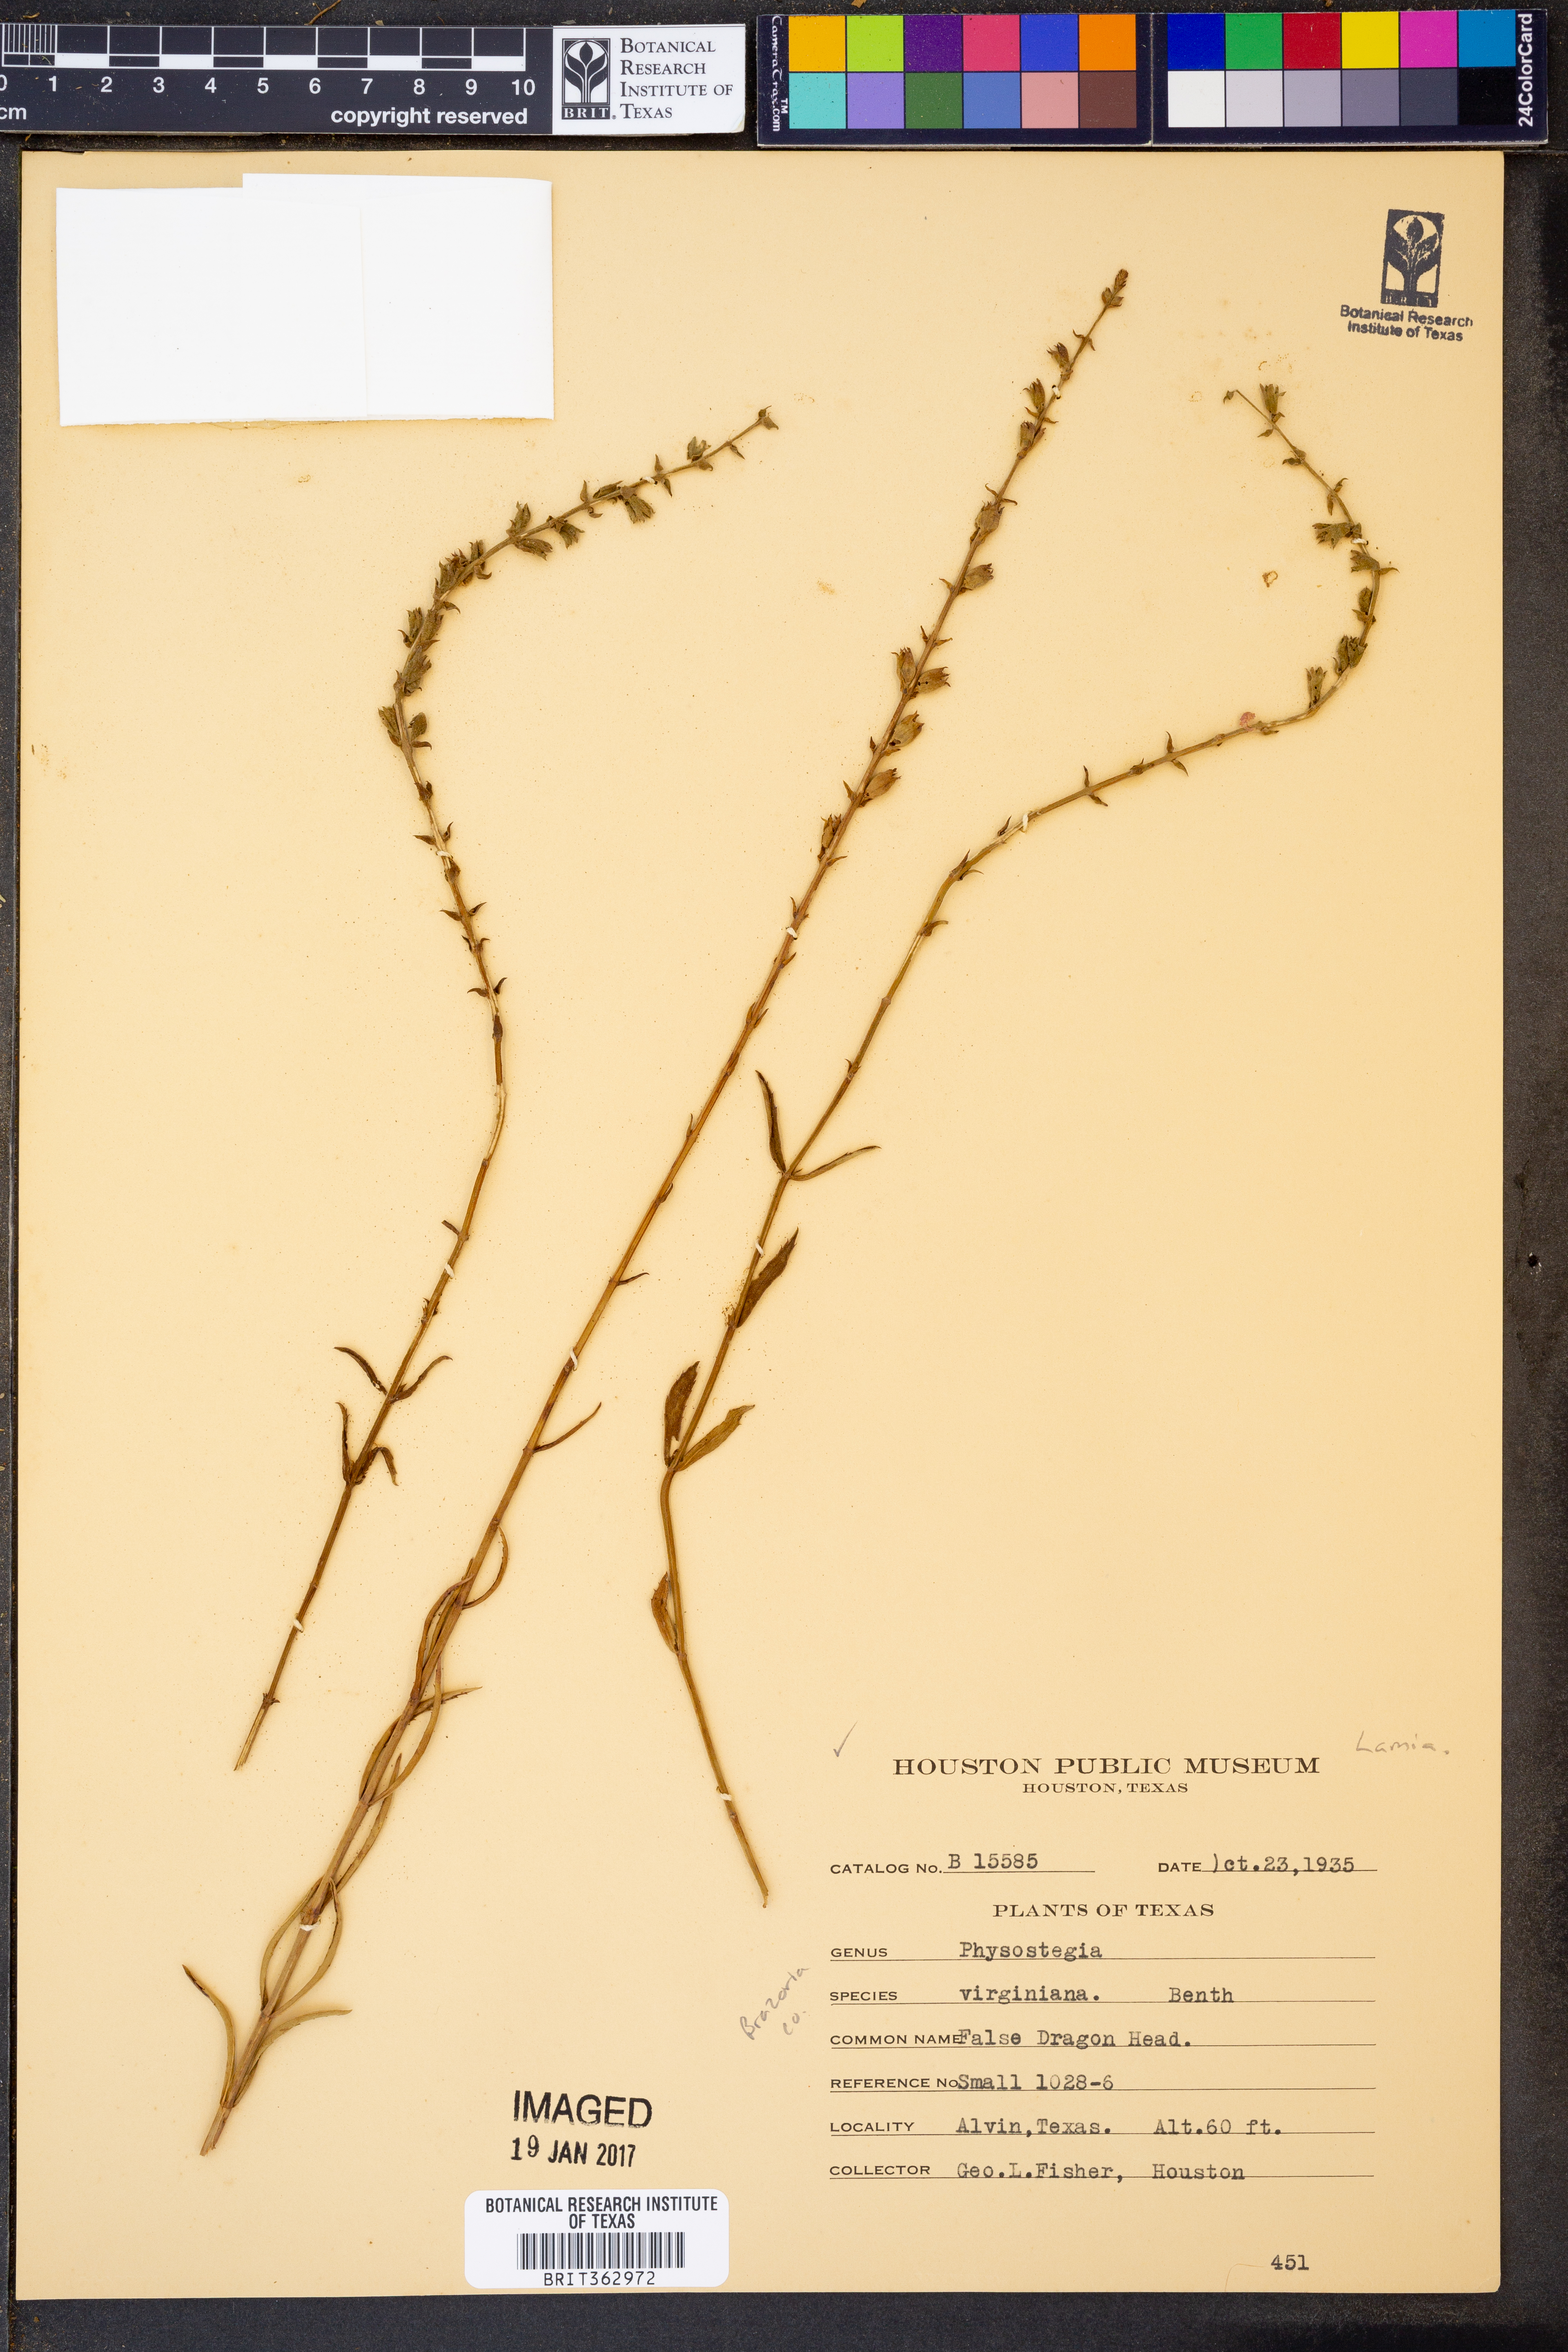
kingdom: Plantae
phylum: Tracheophyta
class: Magnoliopsida
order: Lamiales
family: Lamiaceae
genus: Physostegia
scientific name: Physostegia virginiana
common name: Obedient-plant
